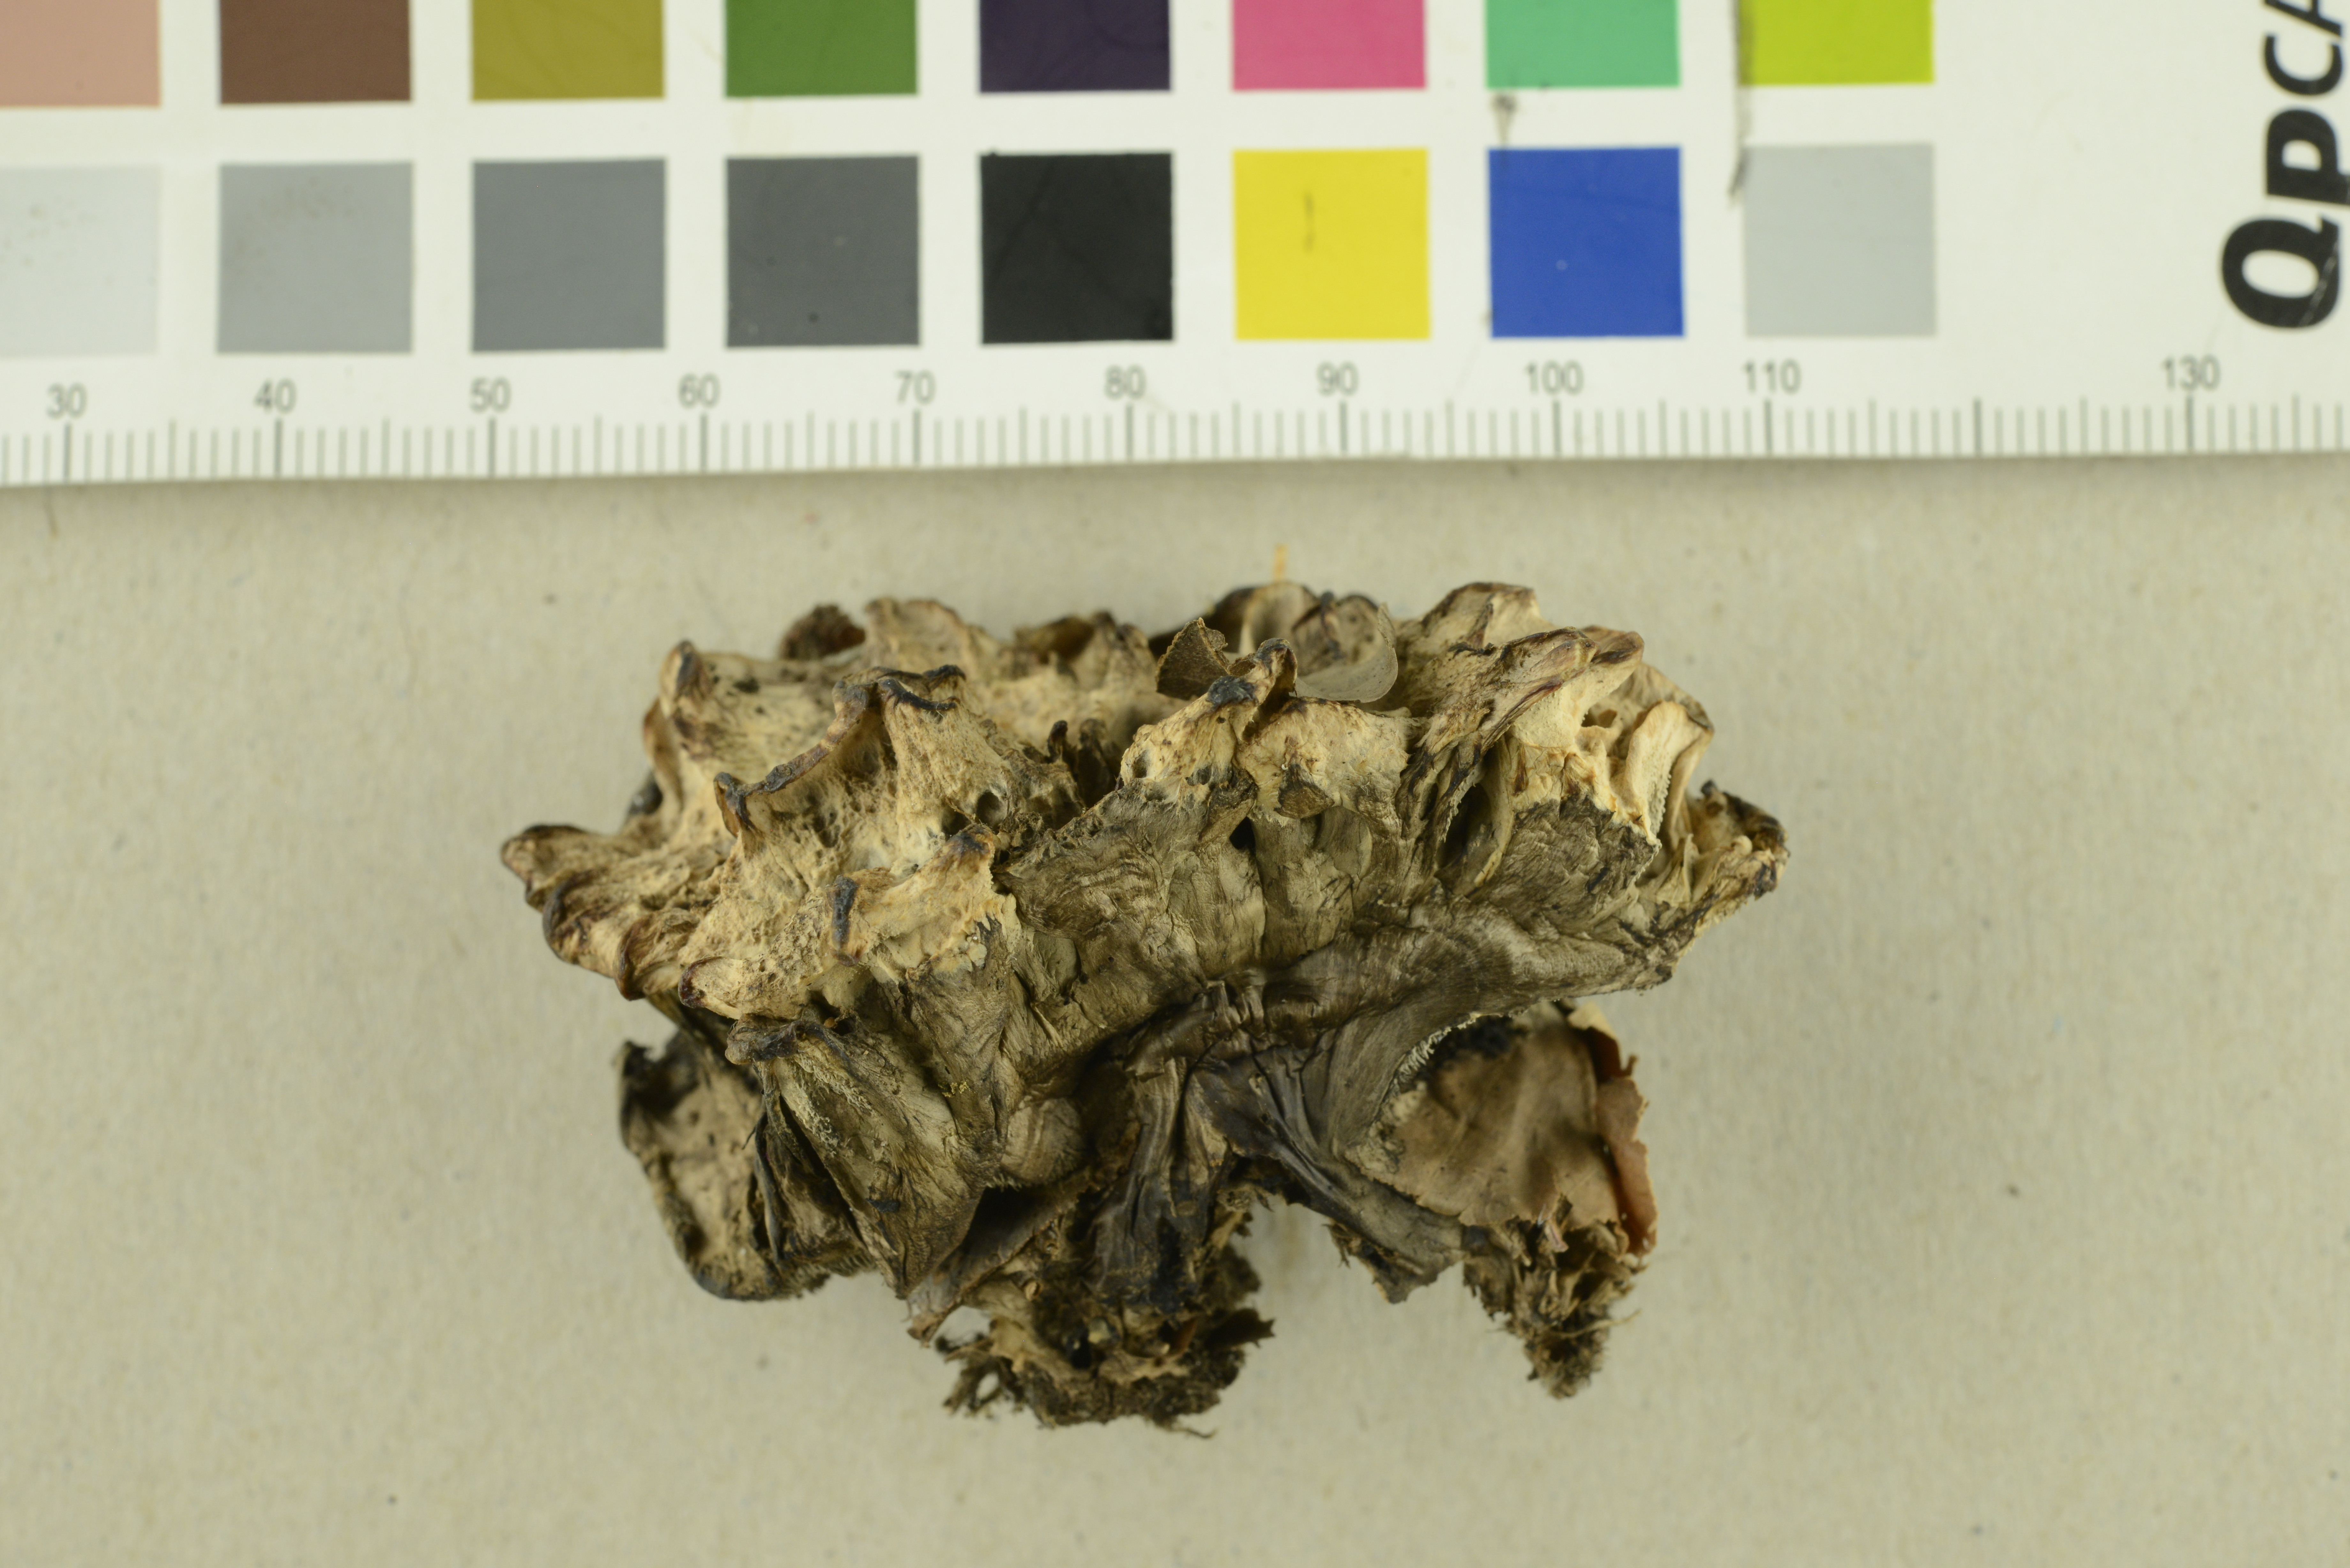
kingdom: Fungi
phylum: Basidiomycota
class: Agaricomycetes
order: Thelephorales
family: Thelephoraceae
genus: Phellodon
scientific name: Phellodon confluens
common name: Fused tooth
